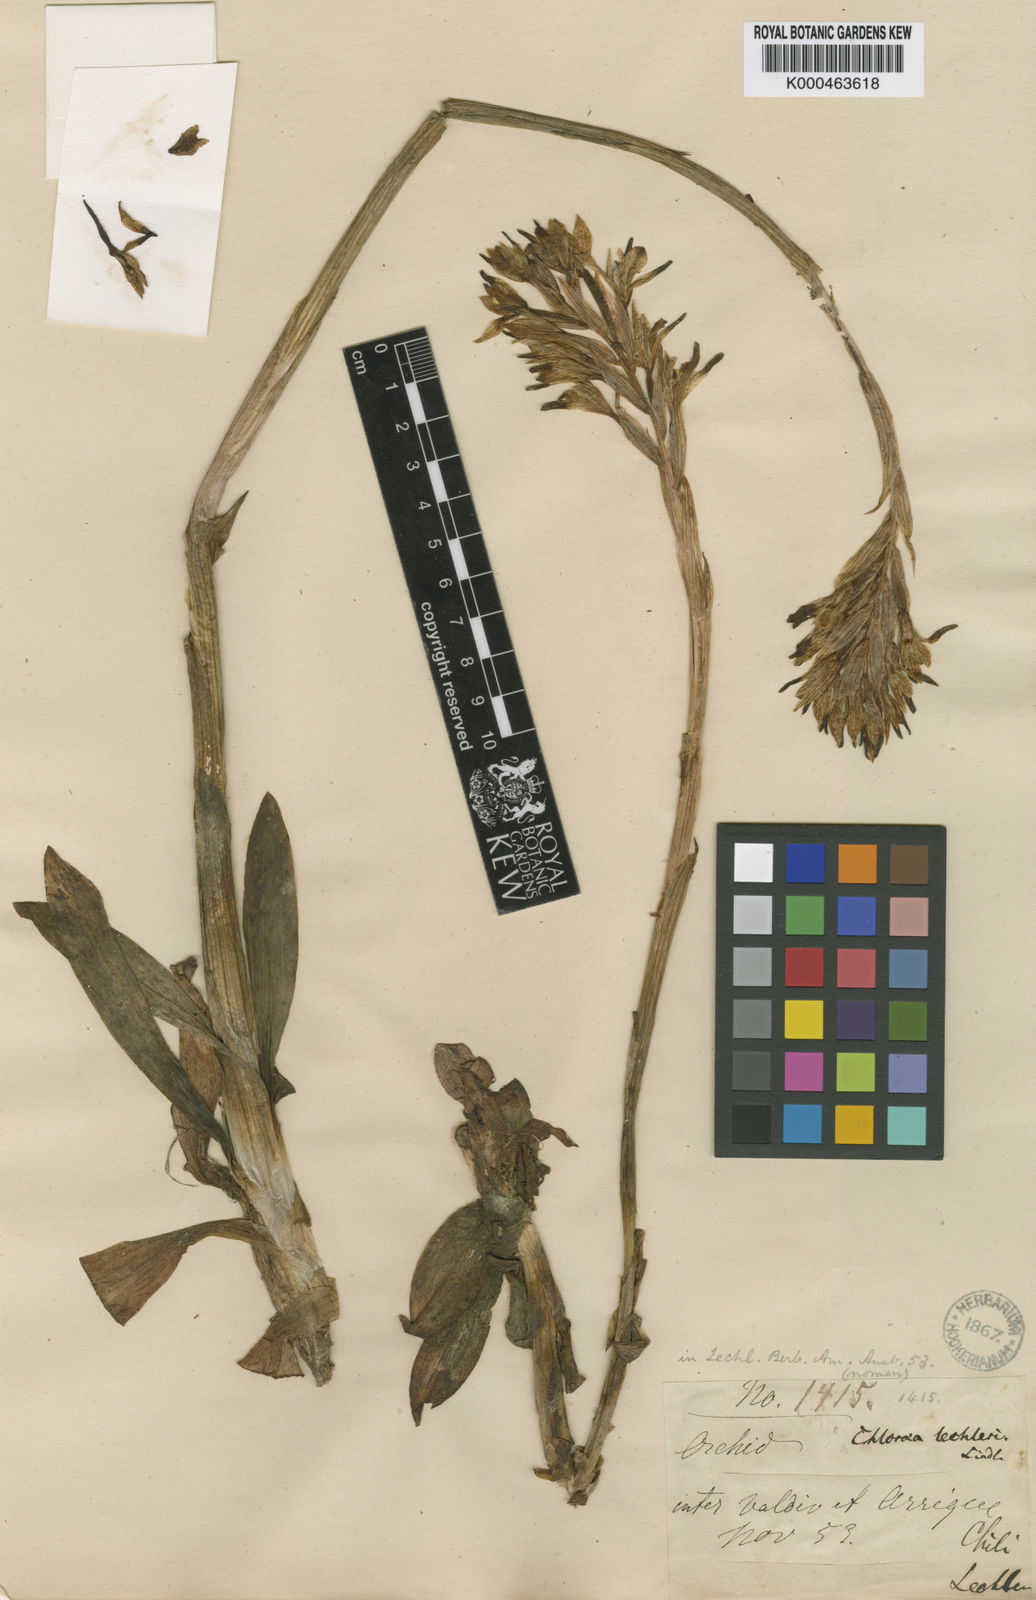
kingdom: Plantae
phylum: Tracheophyta
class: Liliopsida
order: Asparagales
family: Orchidaceae
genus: Chloraea
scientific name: Chloraea lechleri
